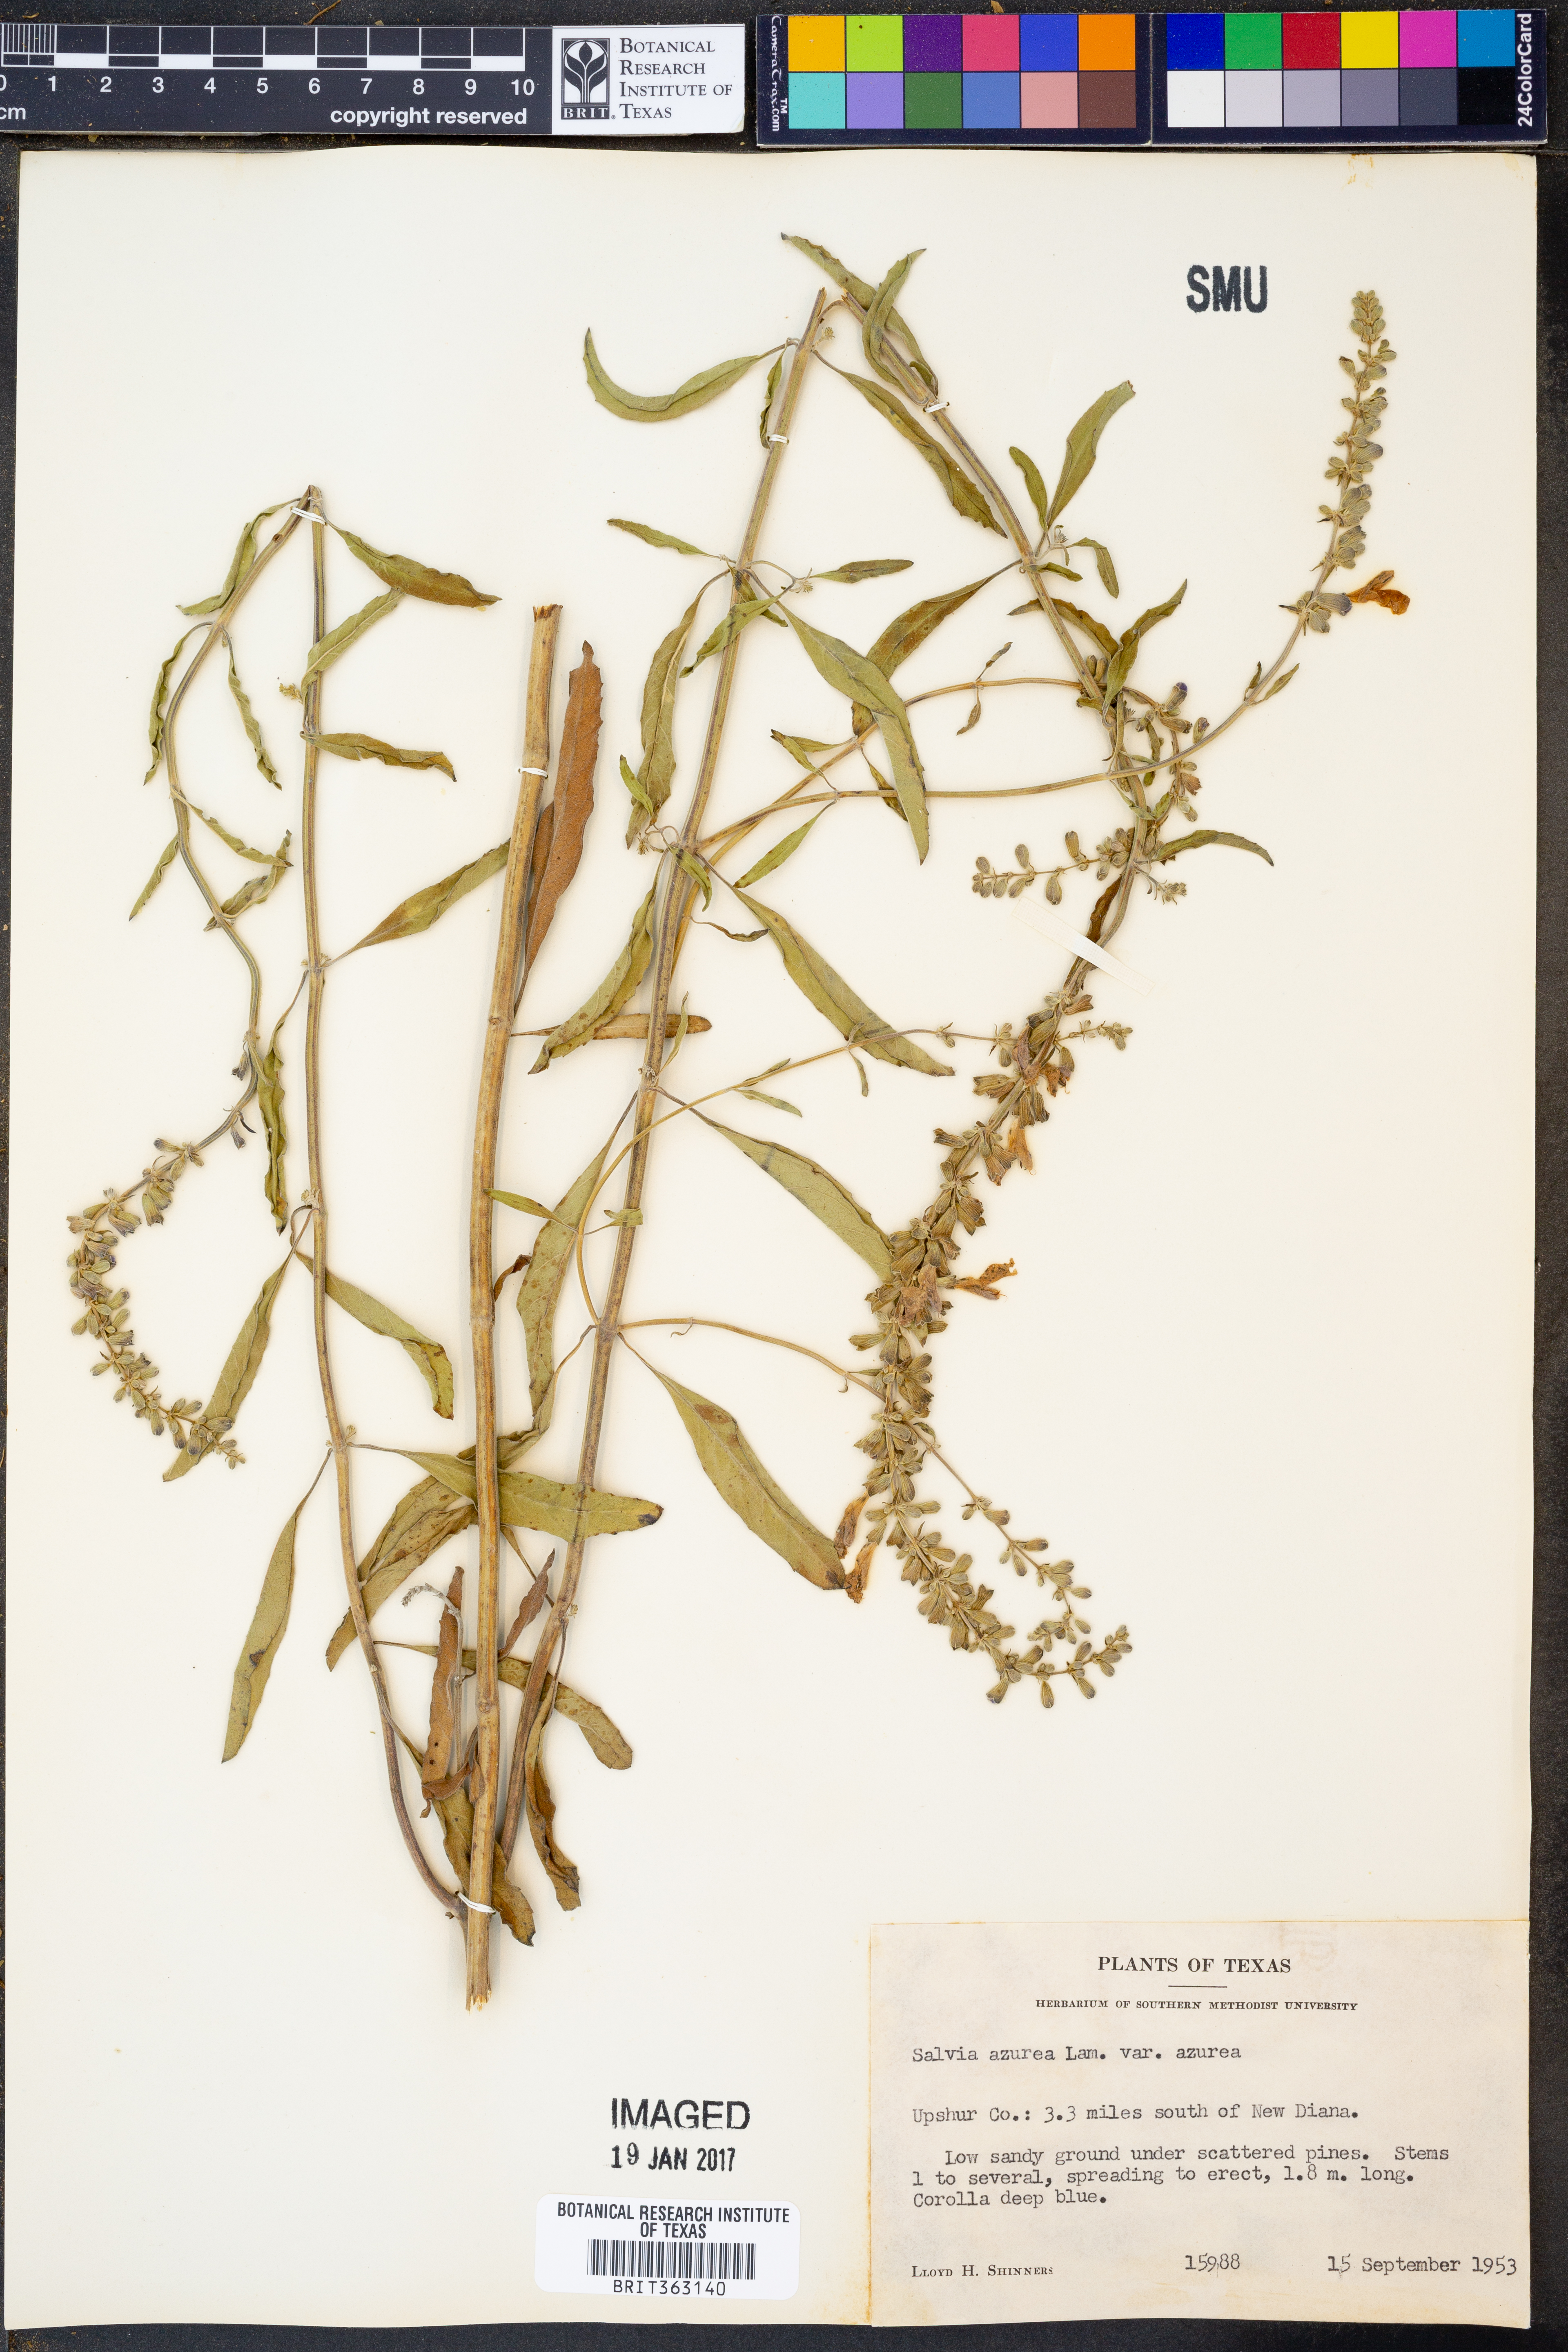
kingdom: Plantae
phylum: Tracheophyta
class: Magnoliopsida
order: Lamiales
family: Lamiaceae
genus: Salvia
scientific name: Salvia azurea
